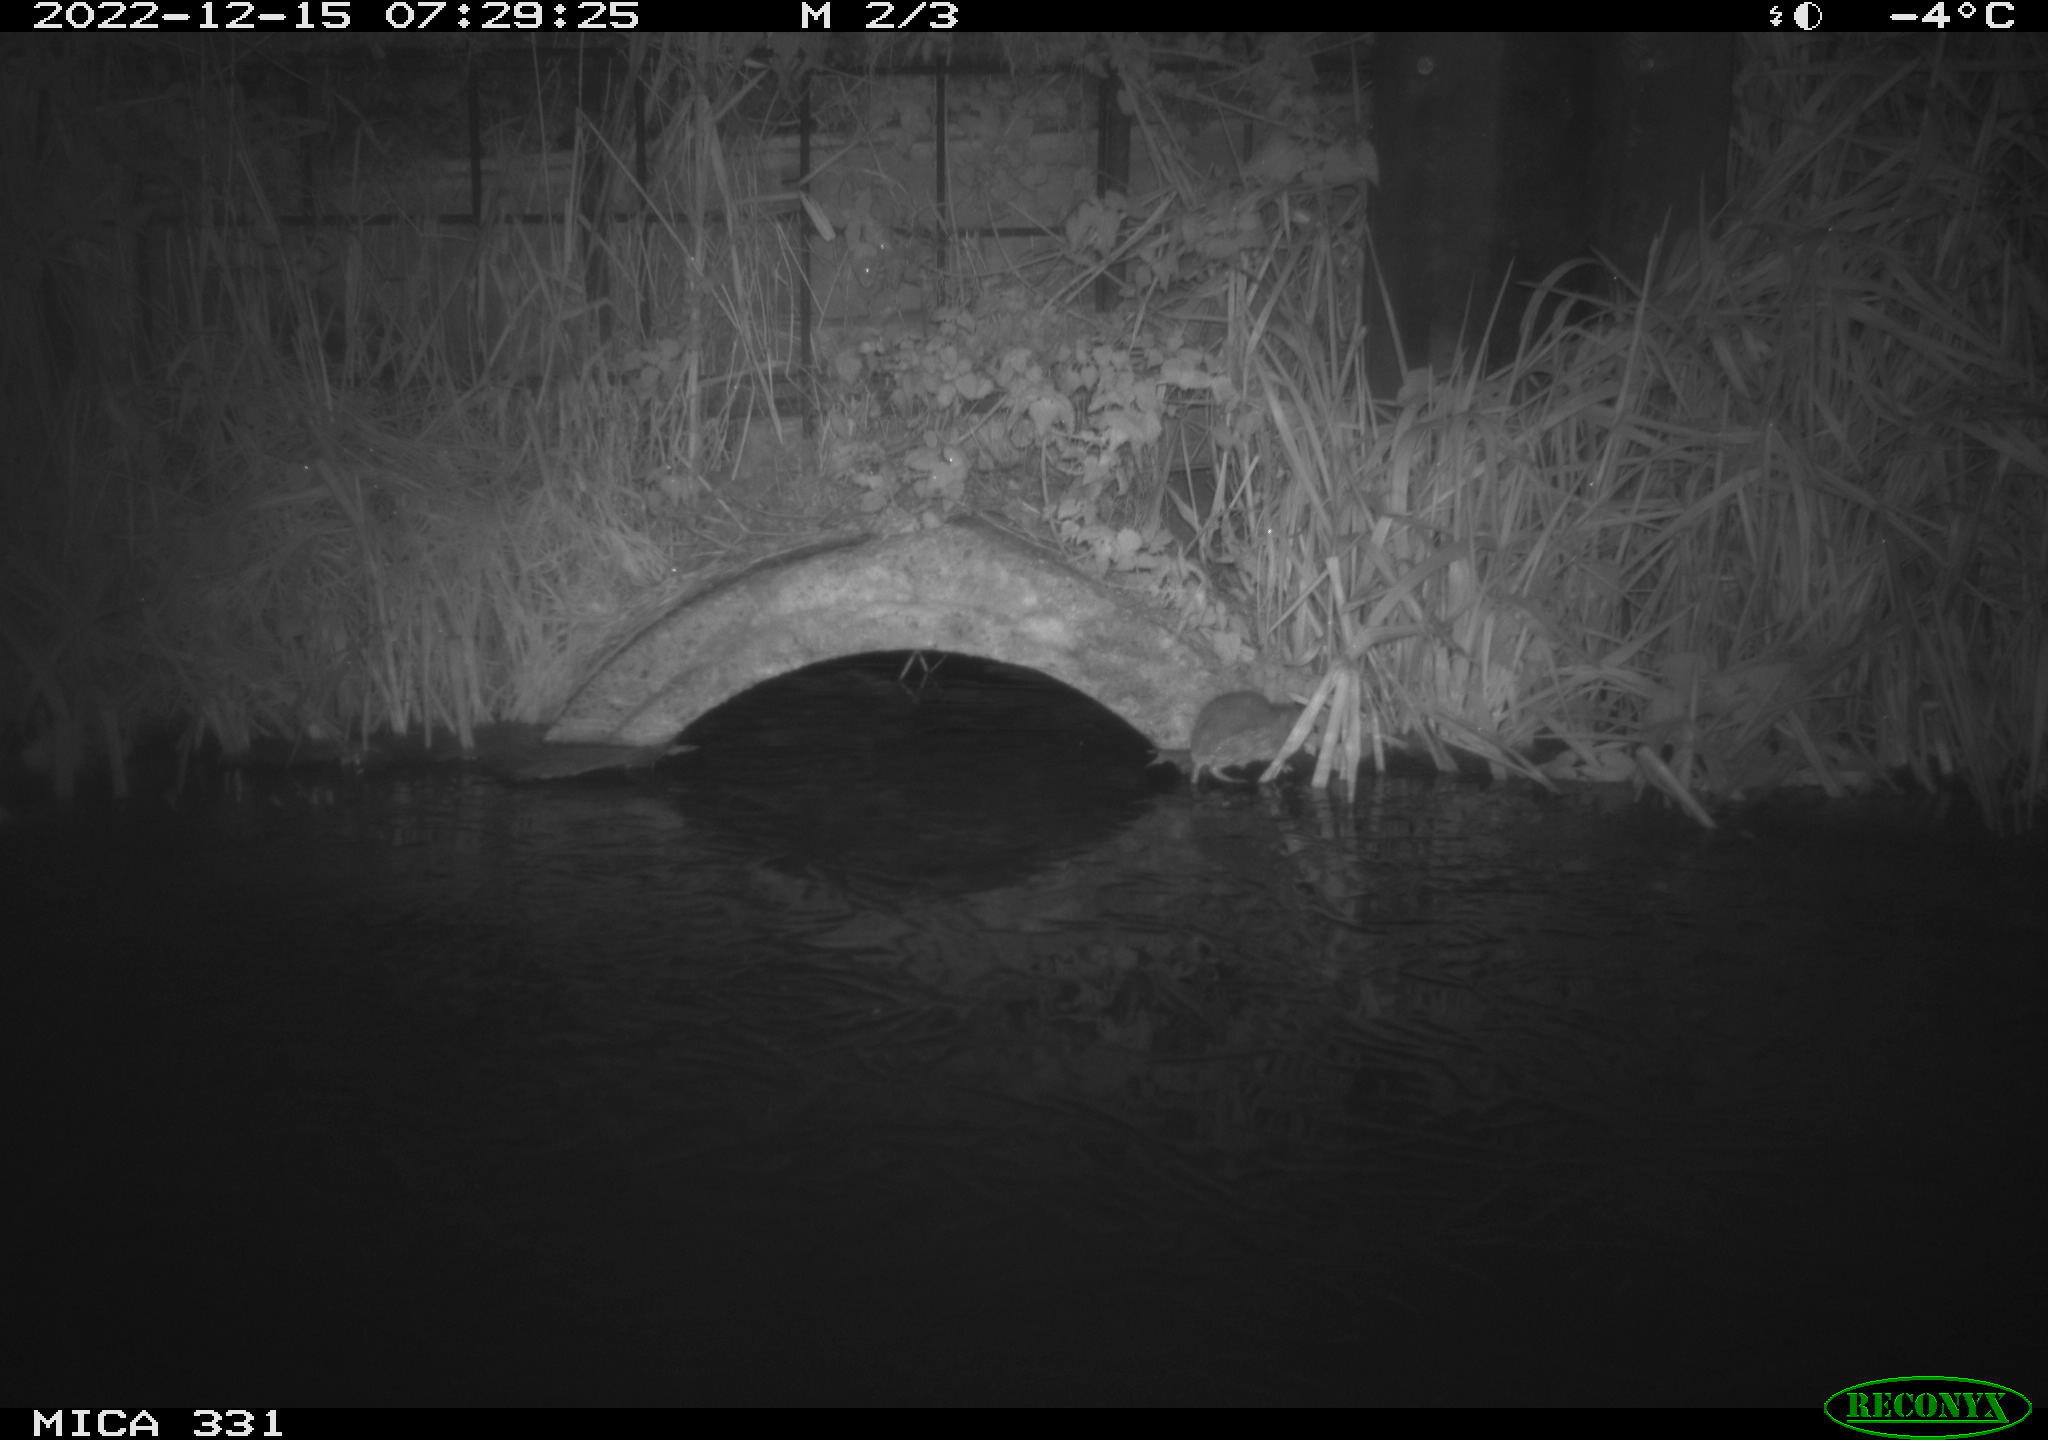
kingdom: Animalia
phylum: Chordata
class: Mammalia
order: Rodentia
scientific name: Rodentia
